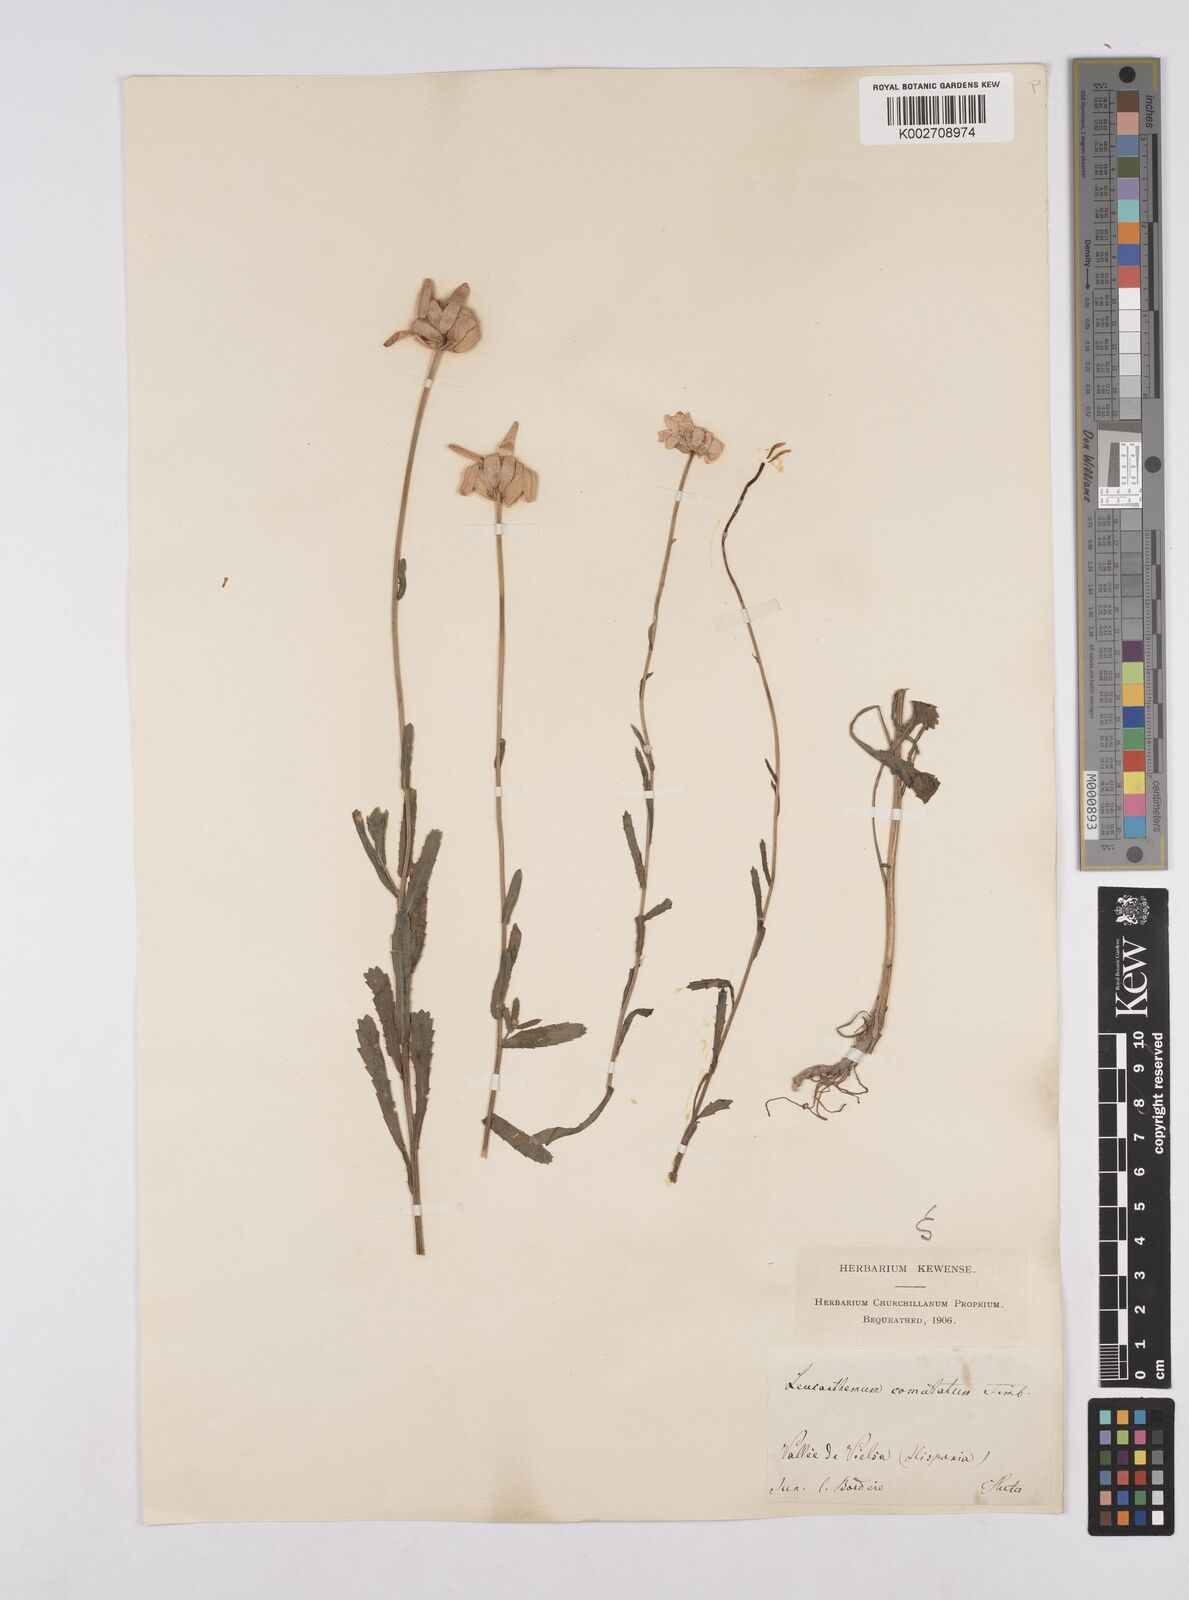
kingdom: Plantae
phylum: Tracheophyta
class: Magnoliopsida
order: Asterales
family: Asteraceae
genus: Leucanthemum
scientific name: Leucanthemum vulgare
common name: Oxeye daisy
